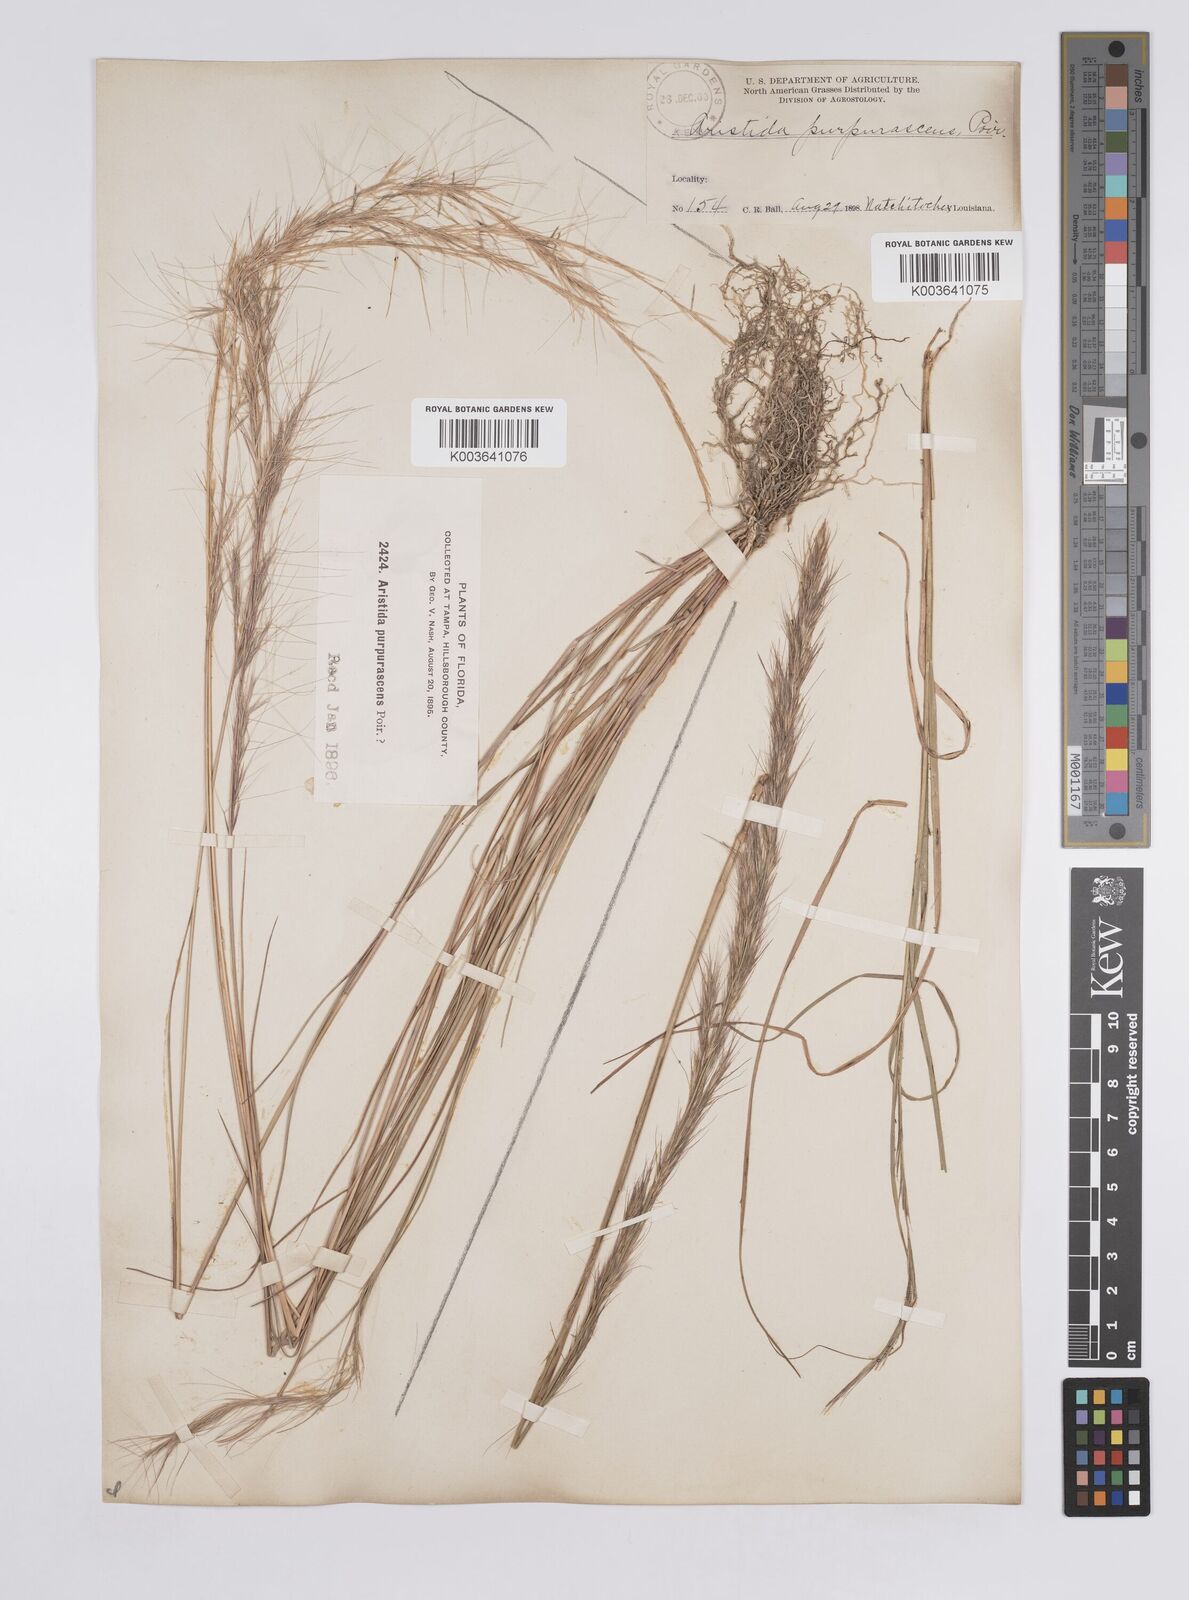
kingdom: Plantae
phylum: Tracheophyta
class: Liliopsida
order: Poales
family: Poaceae
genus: Aristida
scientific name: Aristida purpurascens
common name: Arrow-feather
